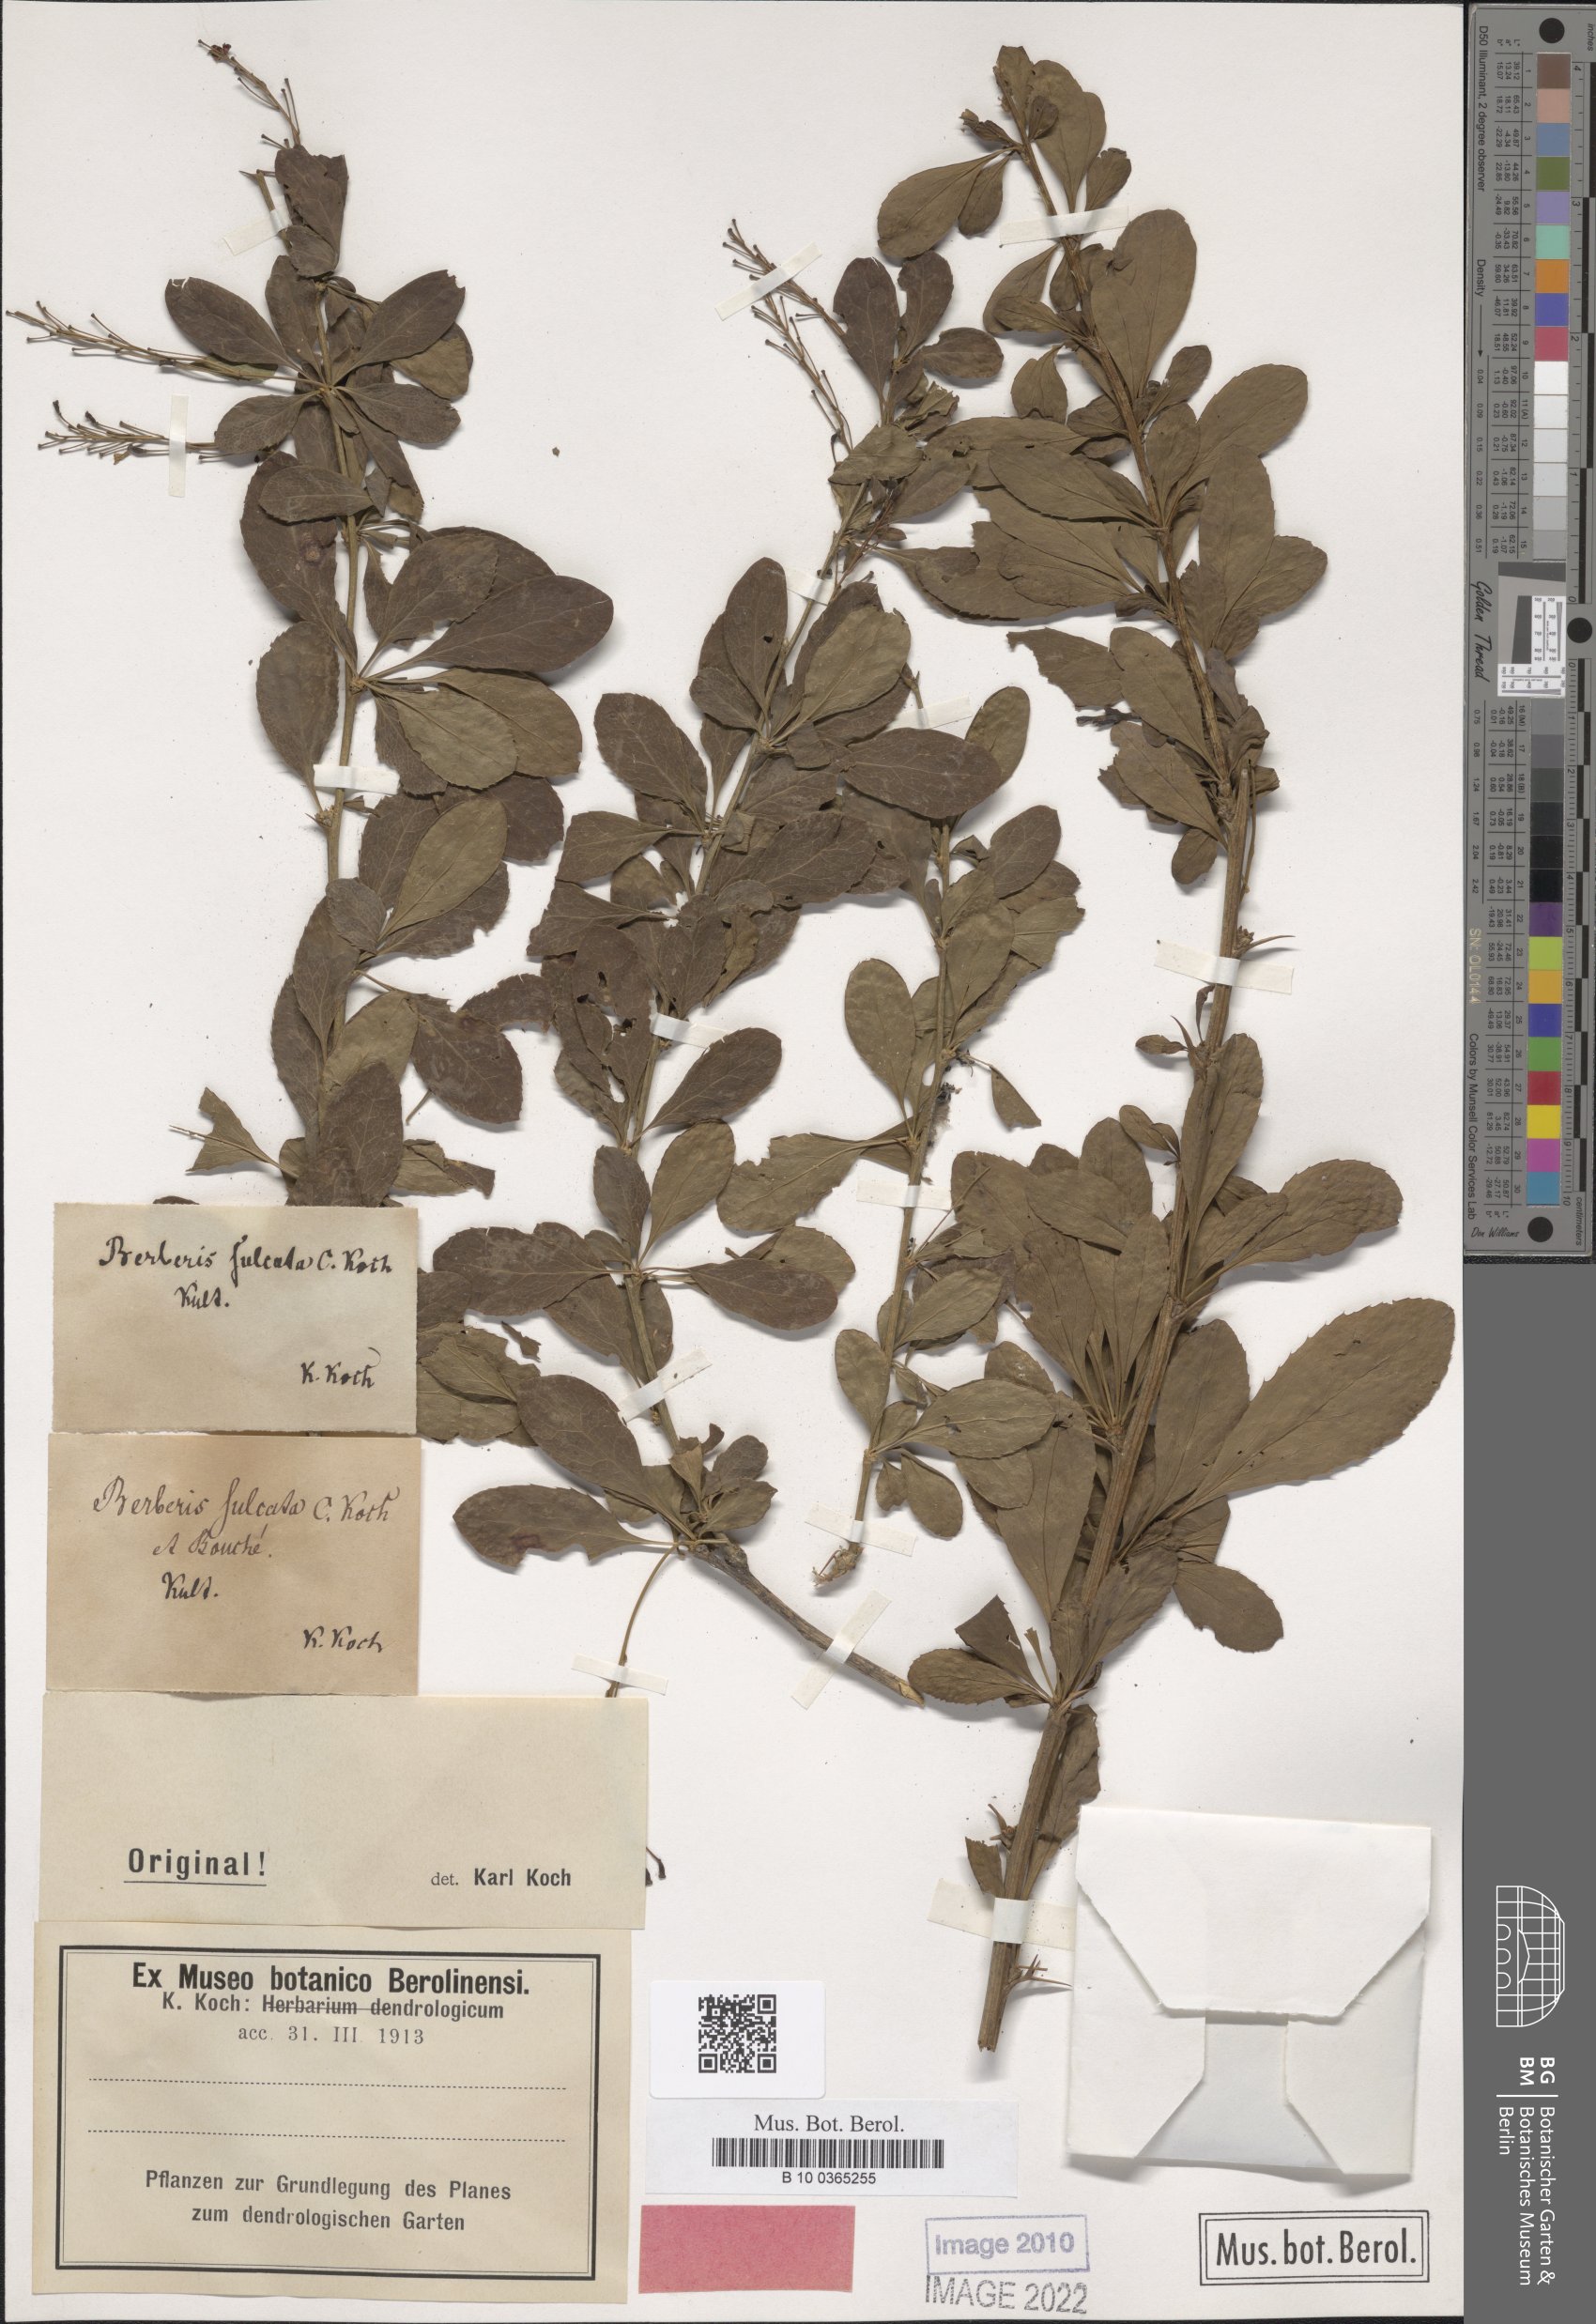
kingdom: Plantae
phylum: Tracheophyta
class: Magnoliopsida
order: Ranunculales
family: Berberidaceae
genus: Berberis
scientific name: Berberis vulgaris
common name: Barberry
